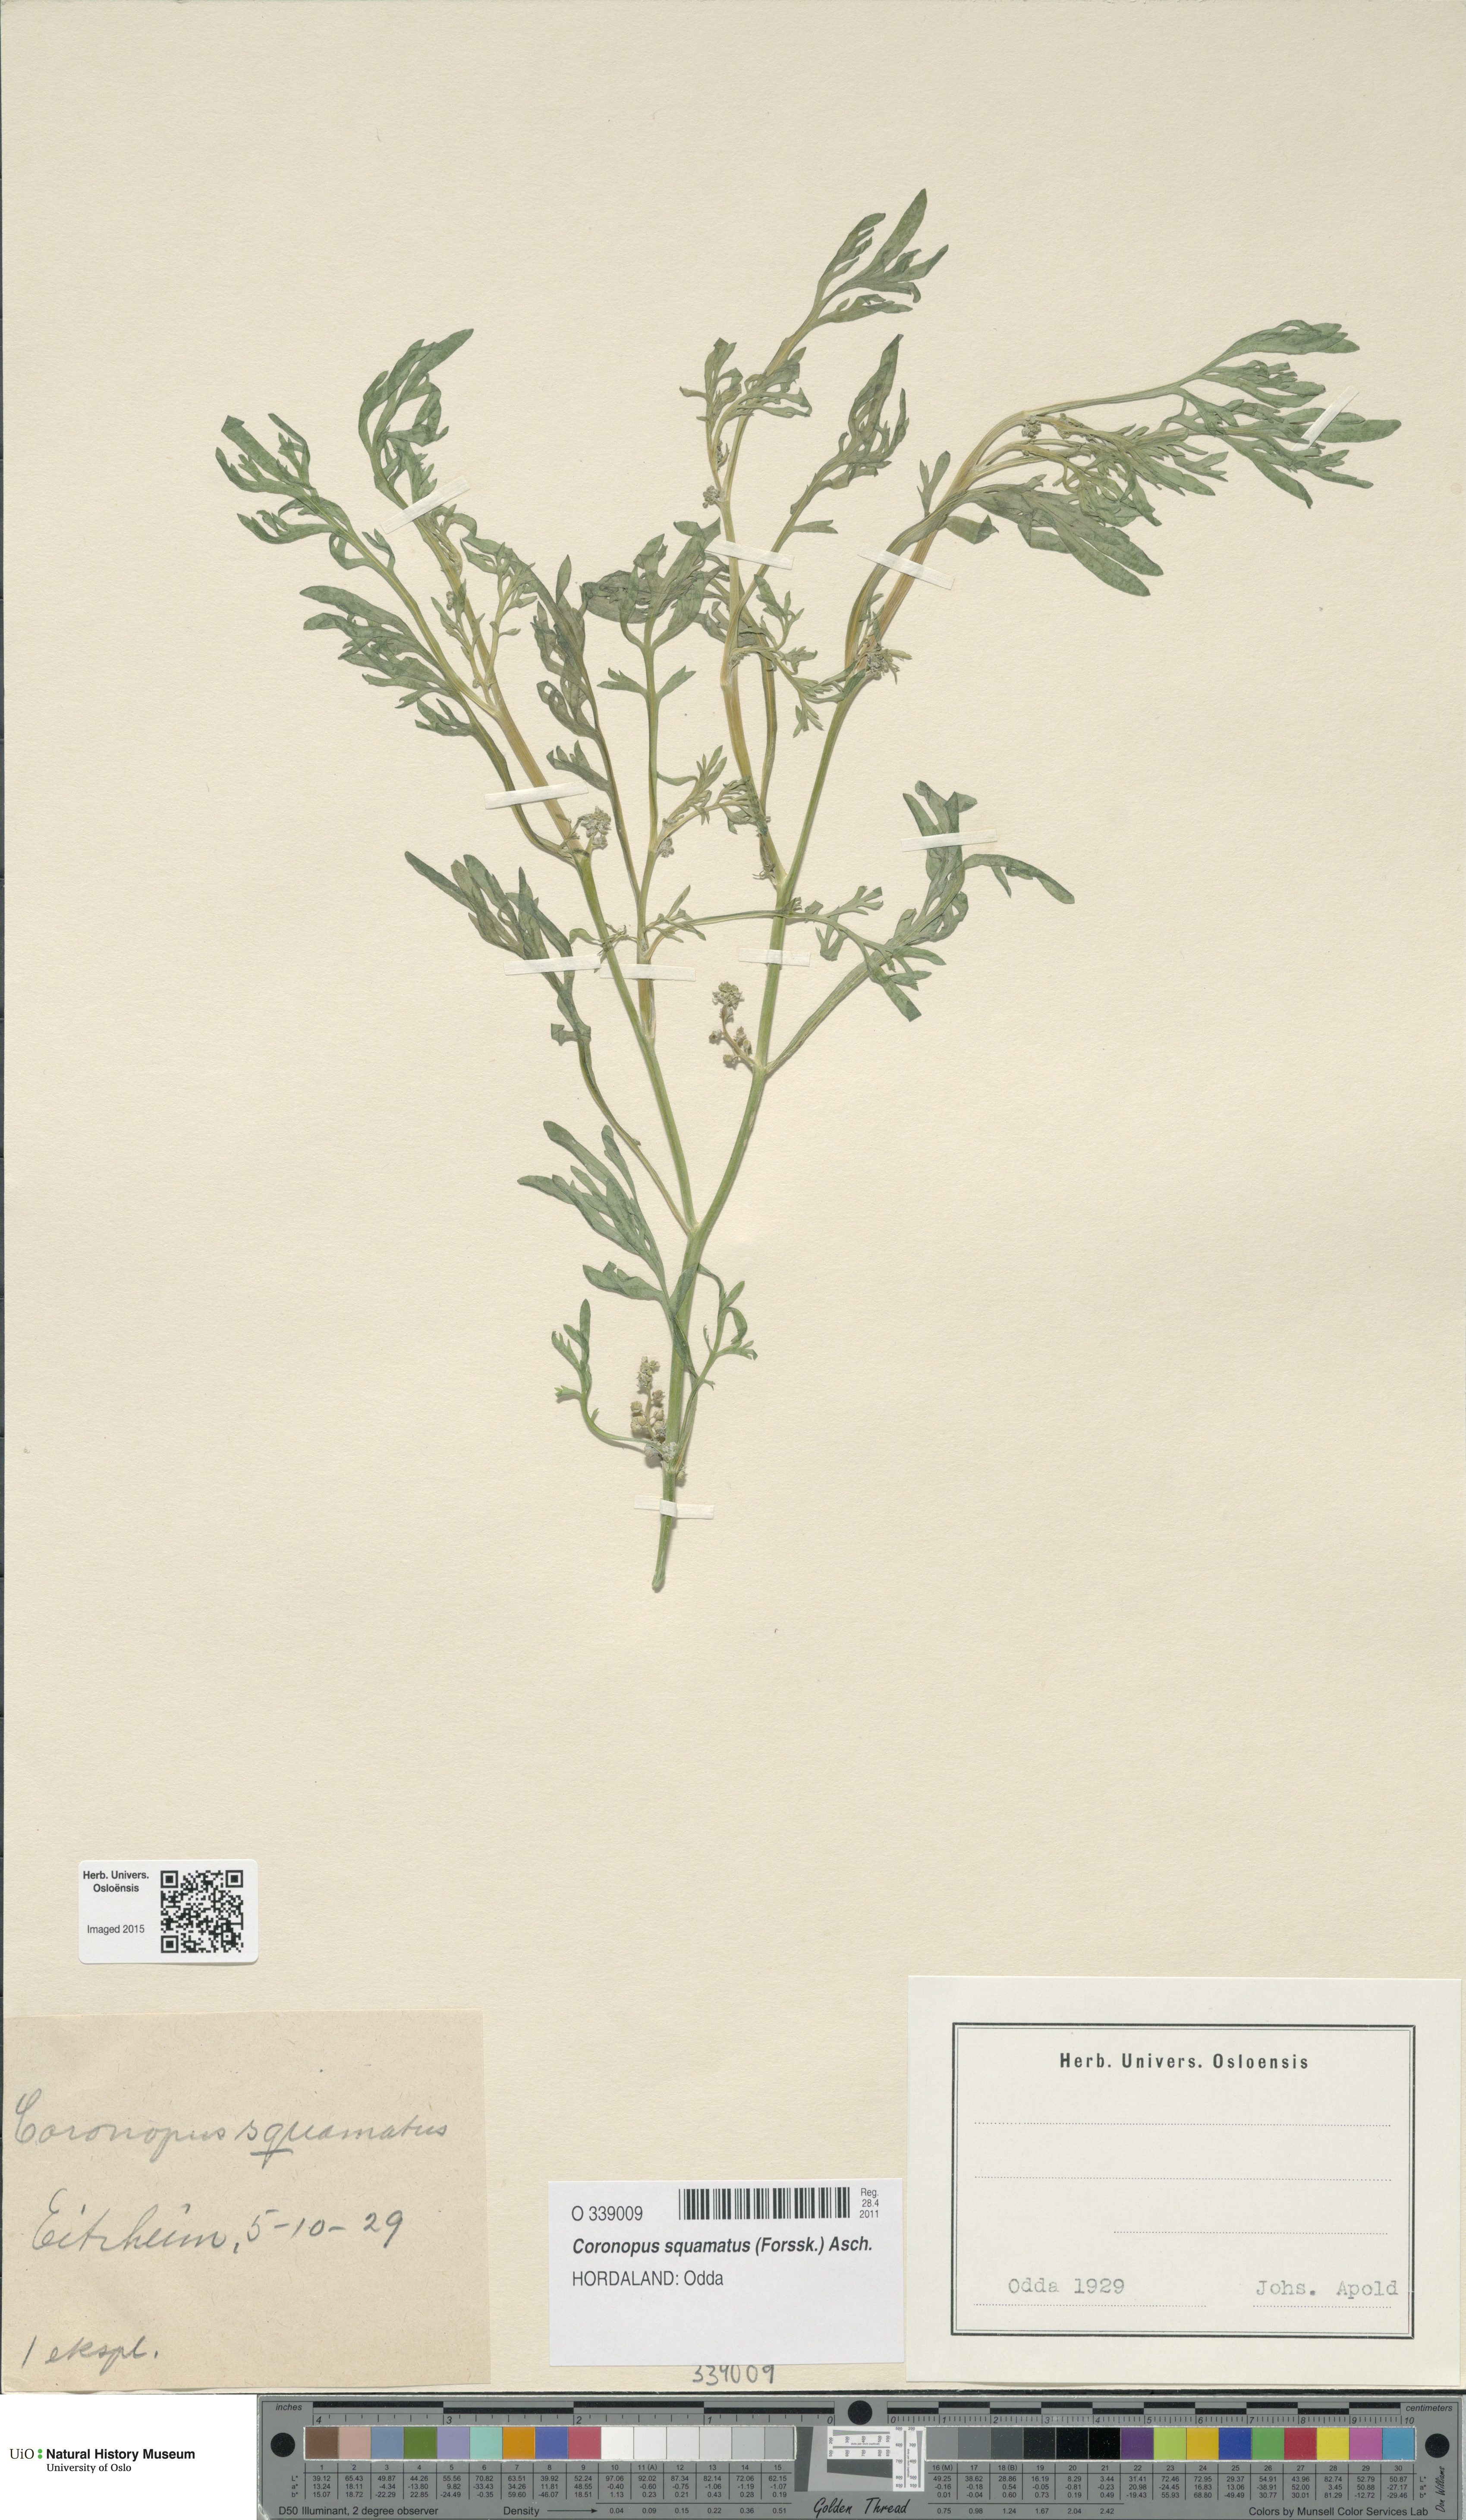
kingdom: Plantae
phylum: Tracheophyta
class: Magnoliopsida
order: Brassicales
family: Brassicaceae
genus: Lepidium
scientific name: Lepidium coronopus
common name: Greater swinecress
